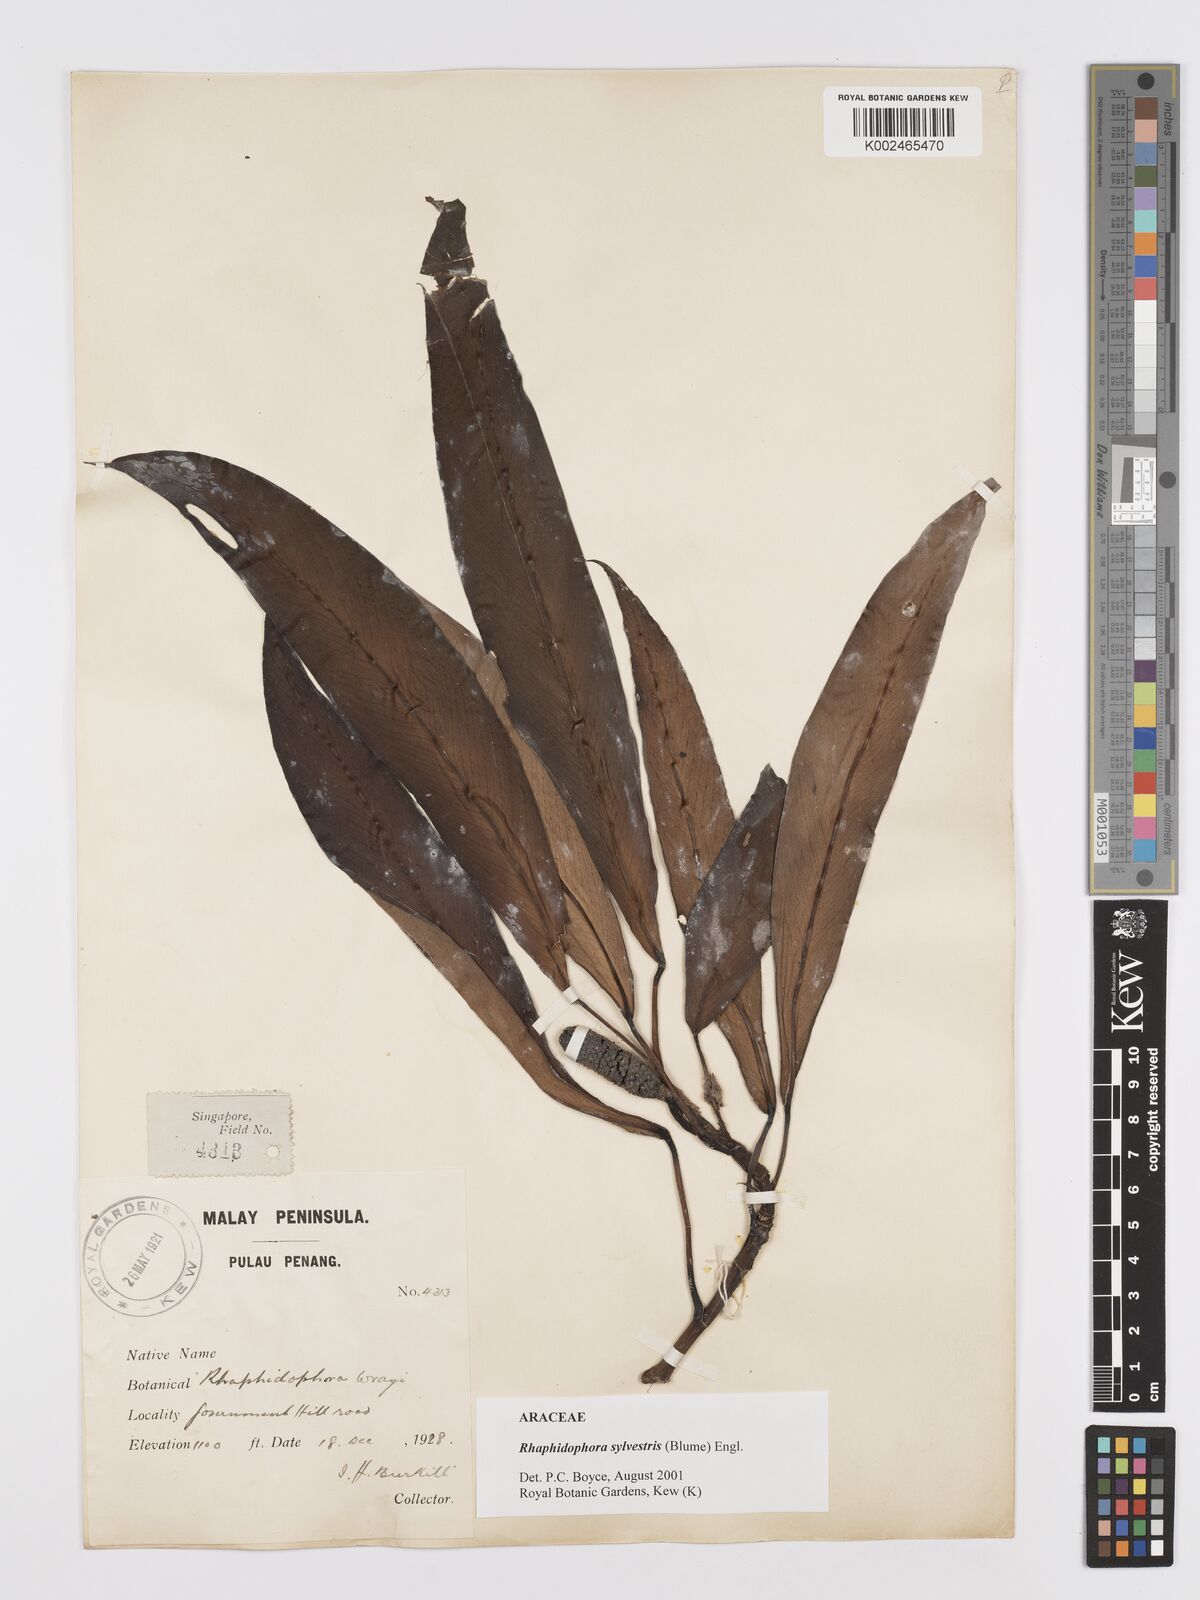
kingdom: Plantae
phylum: Tracheophyta
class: Liliopsida
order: Alismatales
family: Araceae
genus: Rhaphidophora
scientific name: Rhaphidophora sylvestris
